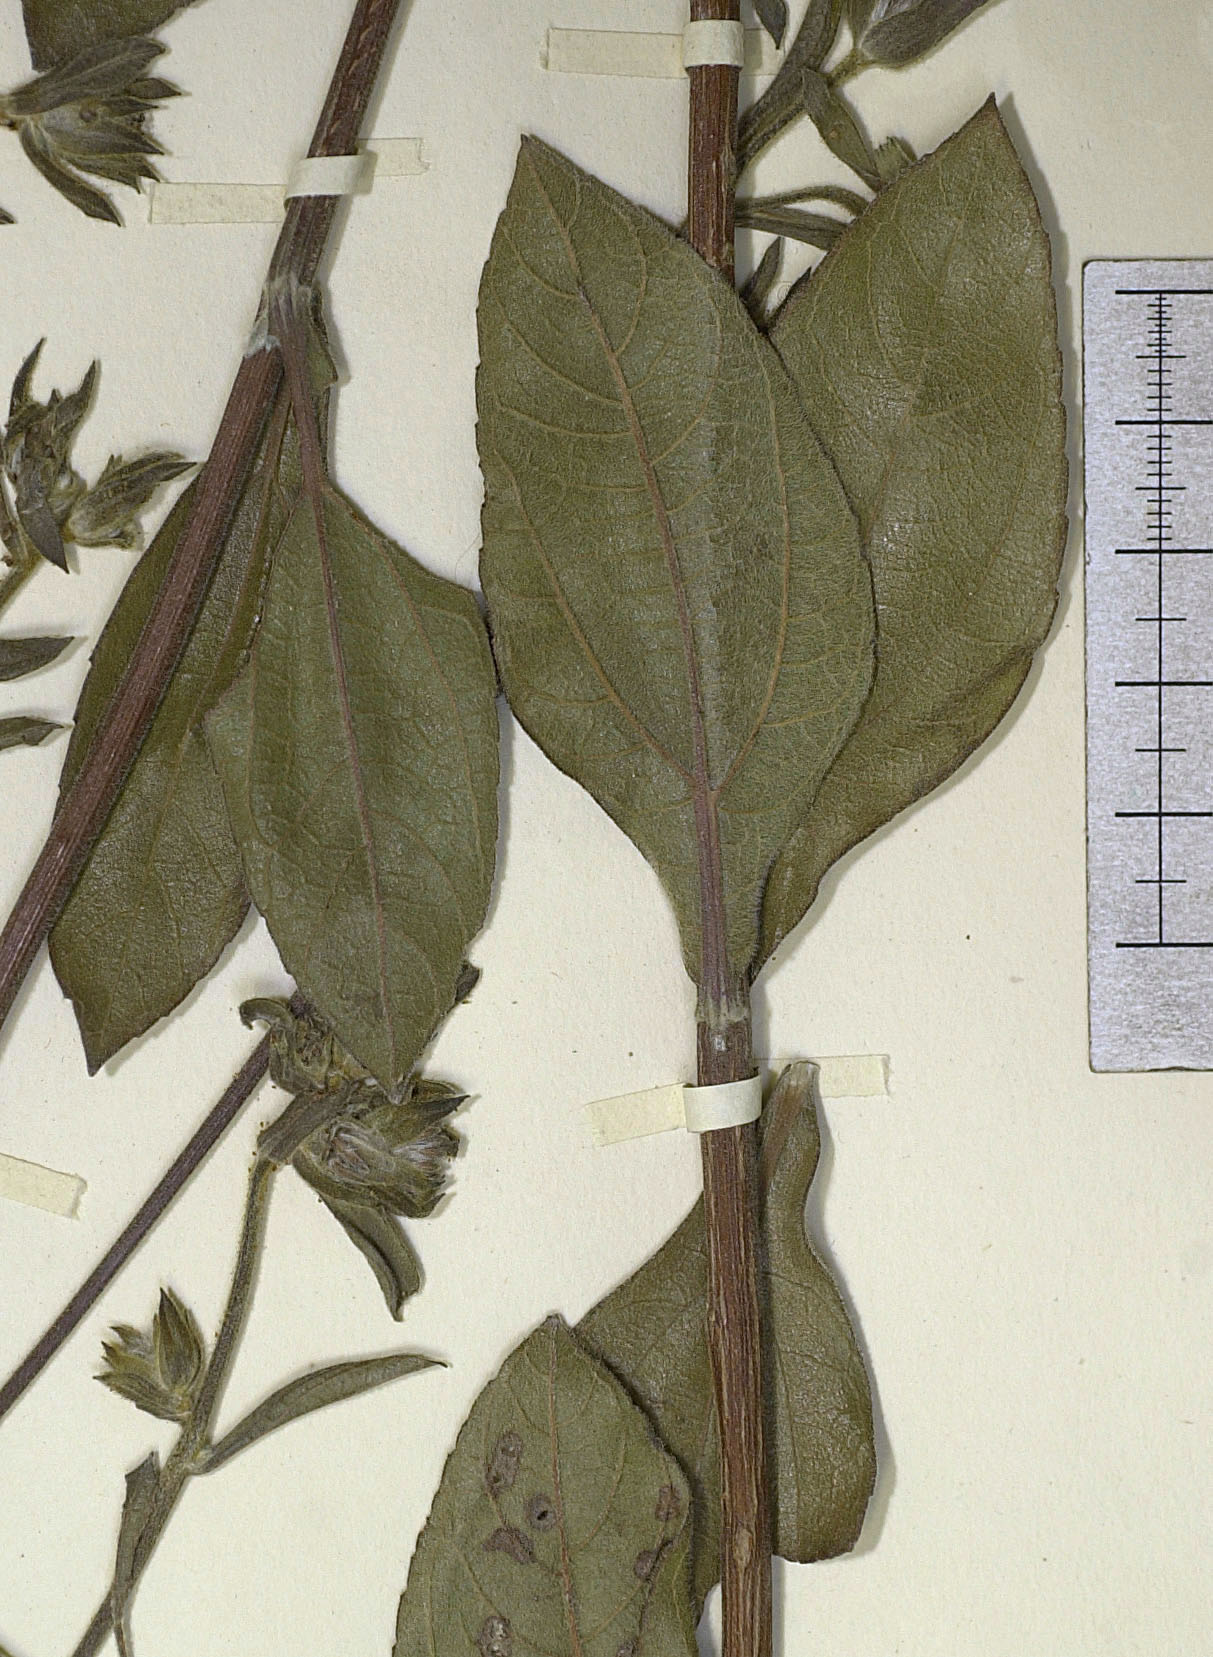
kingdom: Plantae
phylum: Tracheophyta
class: Magnoliopsida
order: Asterales
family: Asteraceae
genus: Lagascea
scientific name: Lagascea rigida
